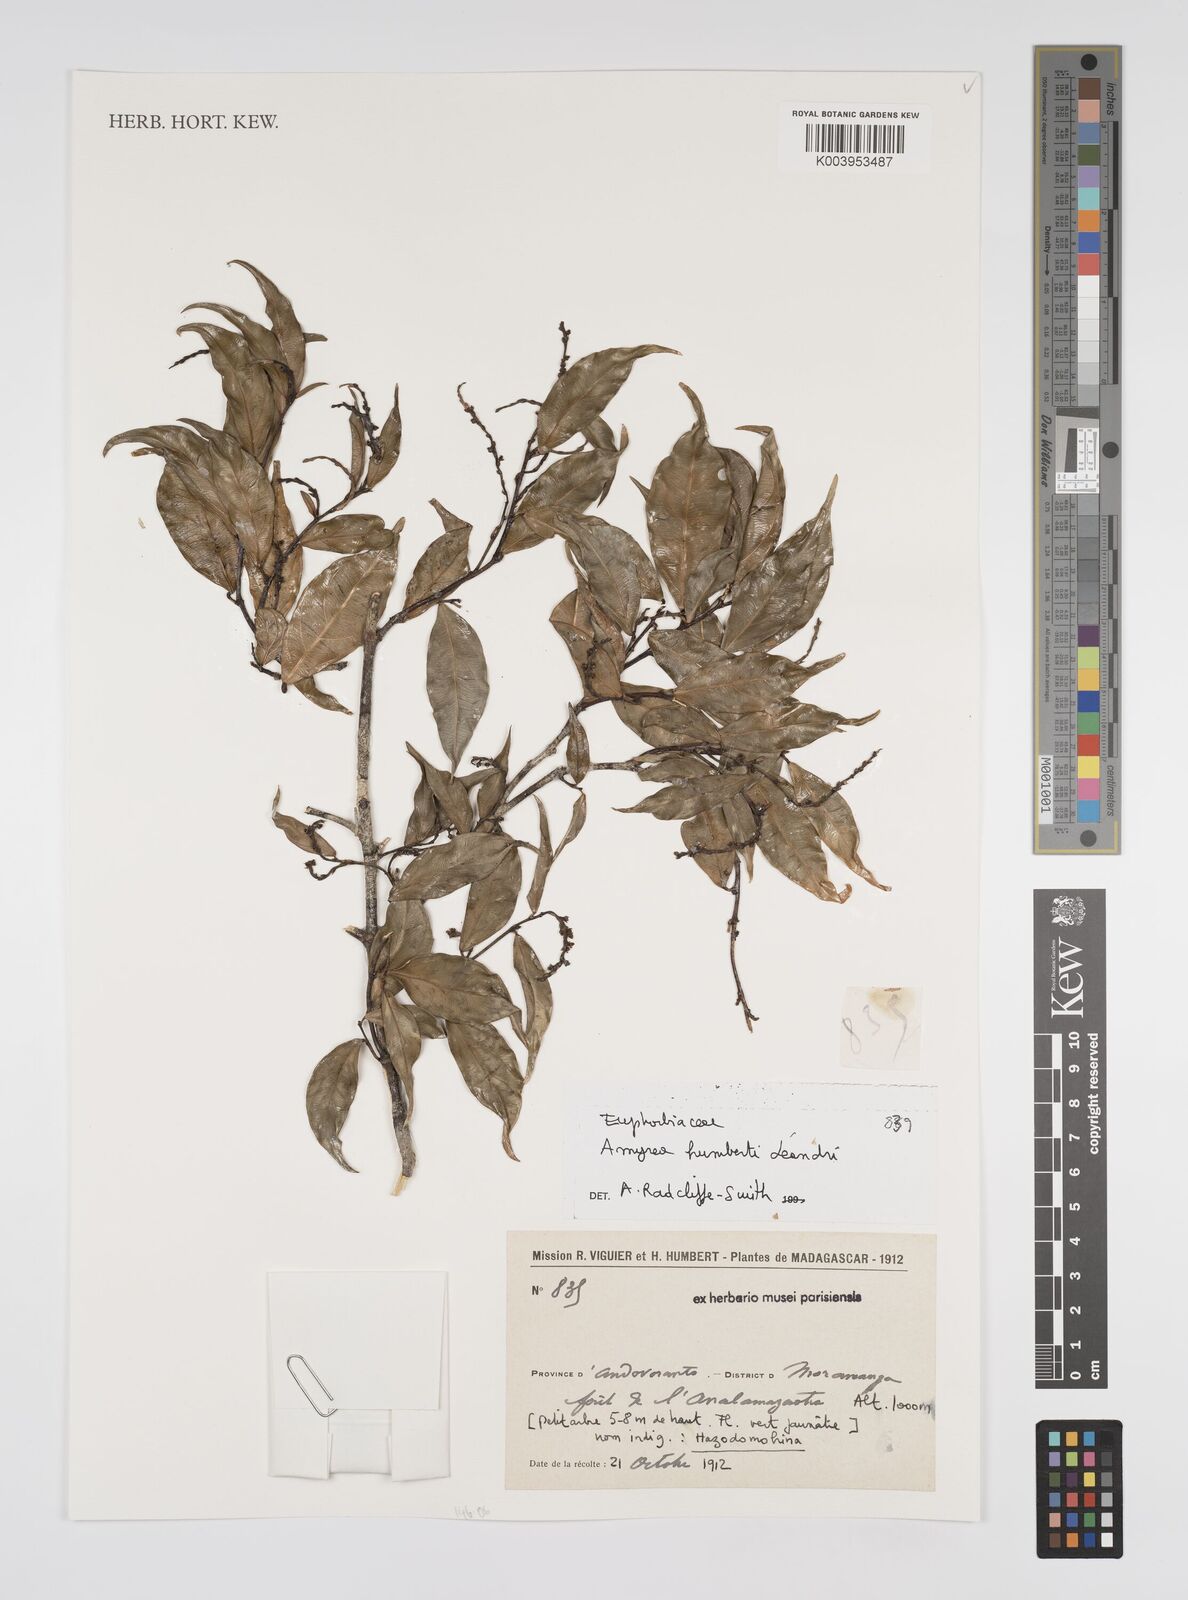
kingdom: Plantae
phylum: Tracheophyta
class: Magnoliopsida
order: Malpighiales
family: Euphorbiaceae
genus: Amyrea
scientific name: Amyrea humbertii
